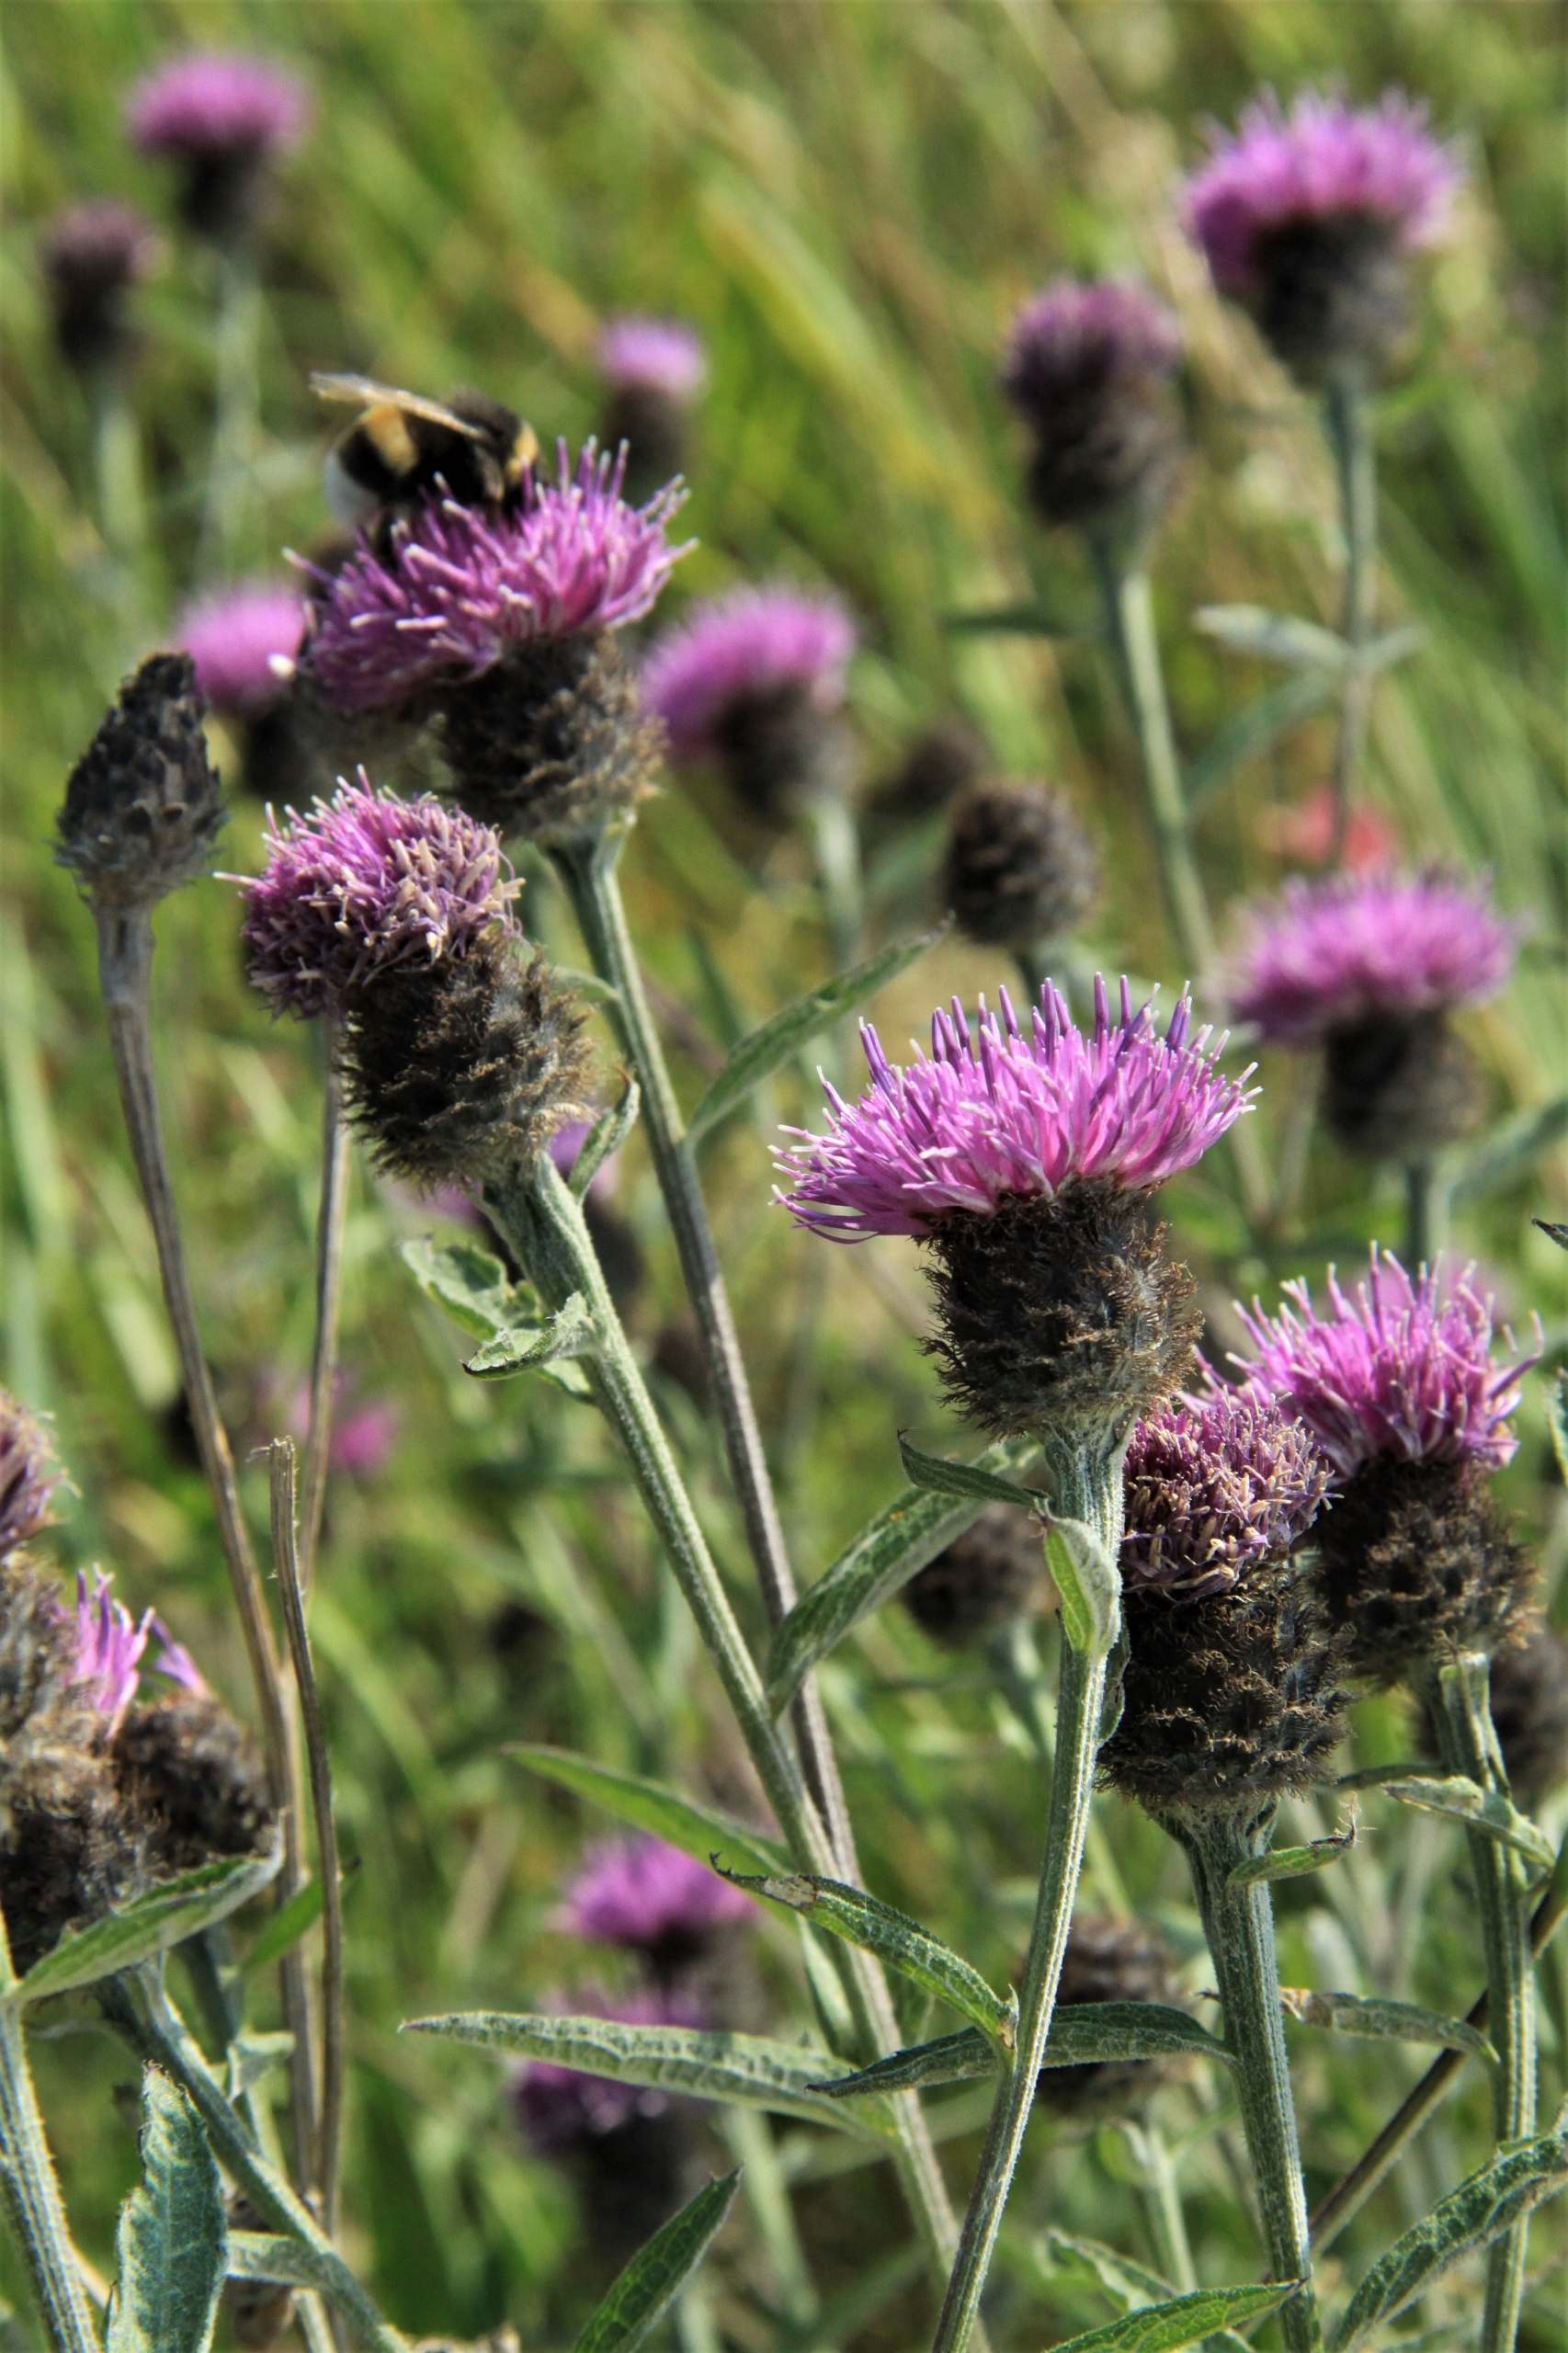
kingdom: Plantae
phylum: Tracheophyta
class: Magnoliopsida
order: Asterales
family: Asteraceae
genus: Centaurea
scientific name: Centaurea nigra
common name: Sorthoved-knopurt
